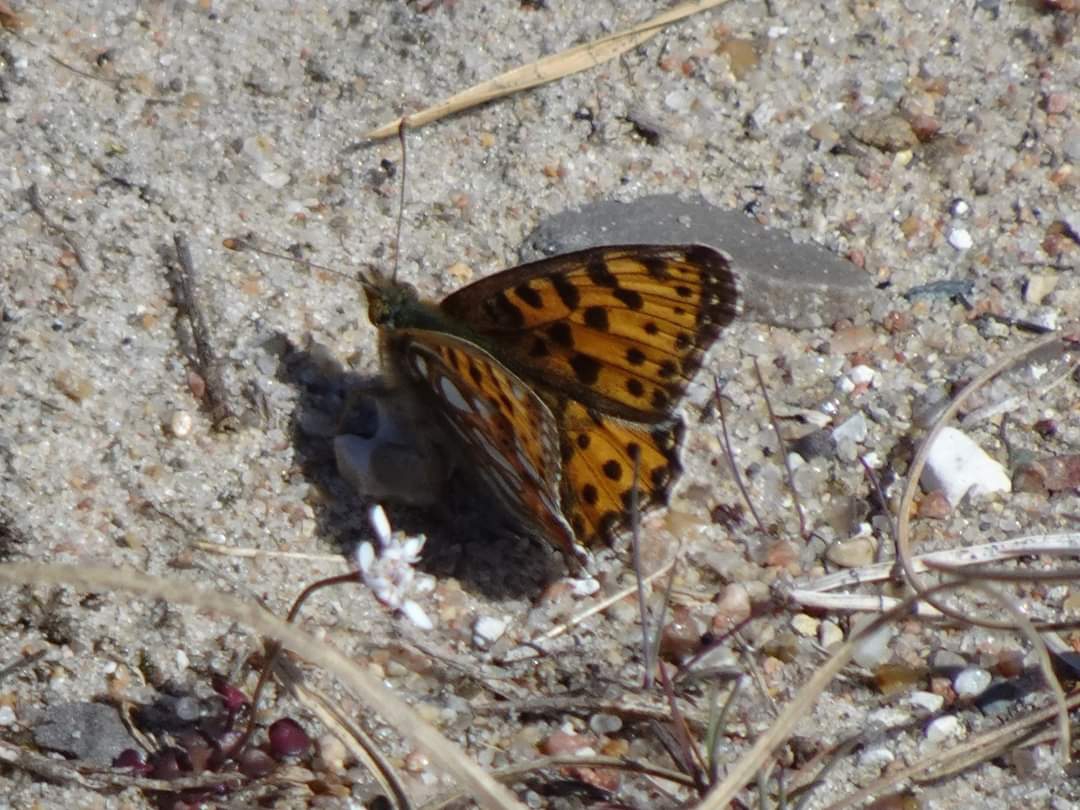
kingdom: Animalia
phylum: Arthropoda
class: Insecta
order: Lepidoptera
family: Nymphalidae
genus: Issoria
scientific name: Issoria lathonia
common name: Storplettet perlemorsommerfugl
